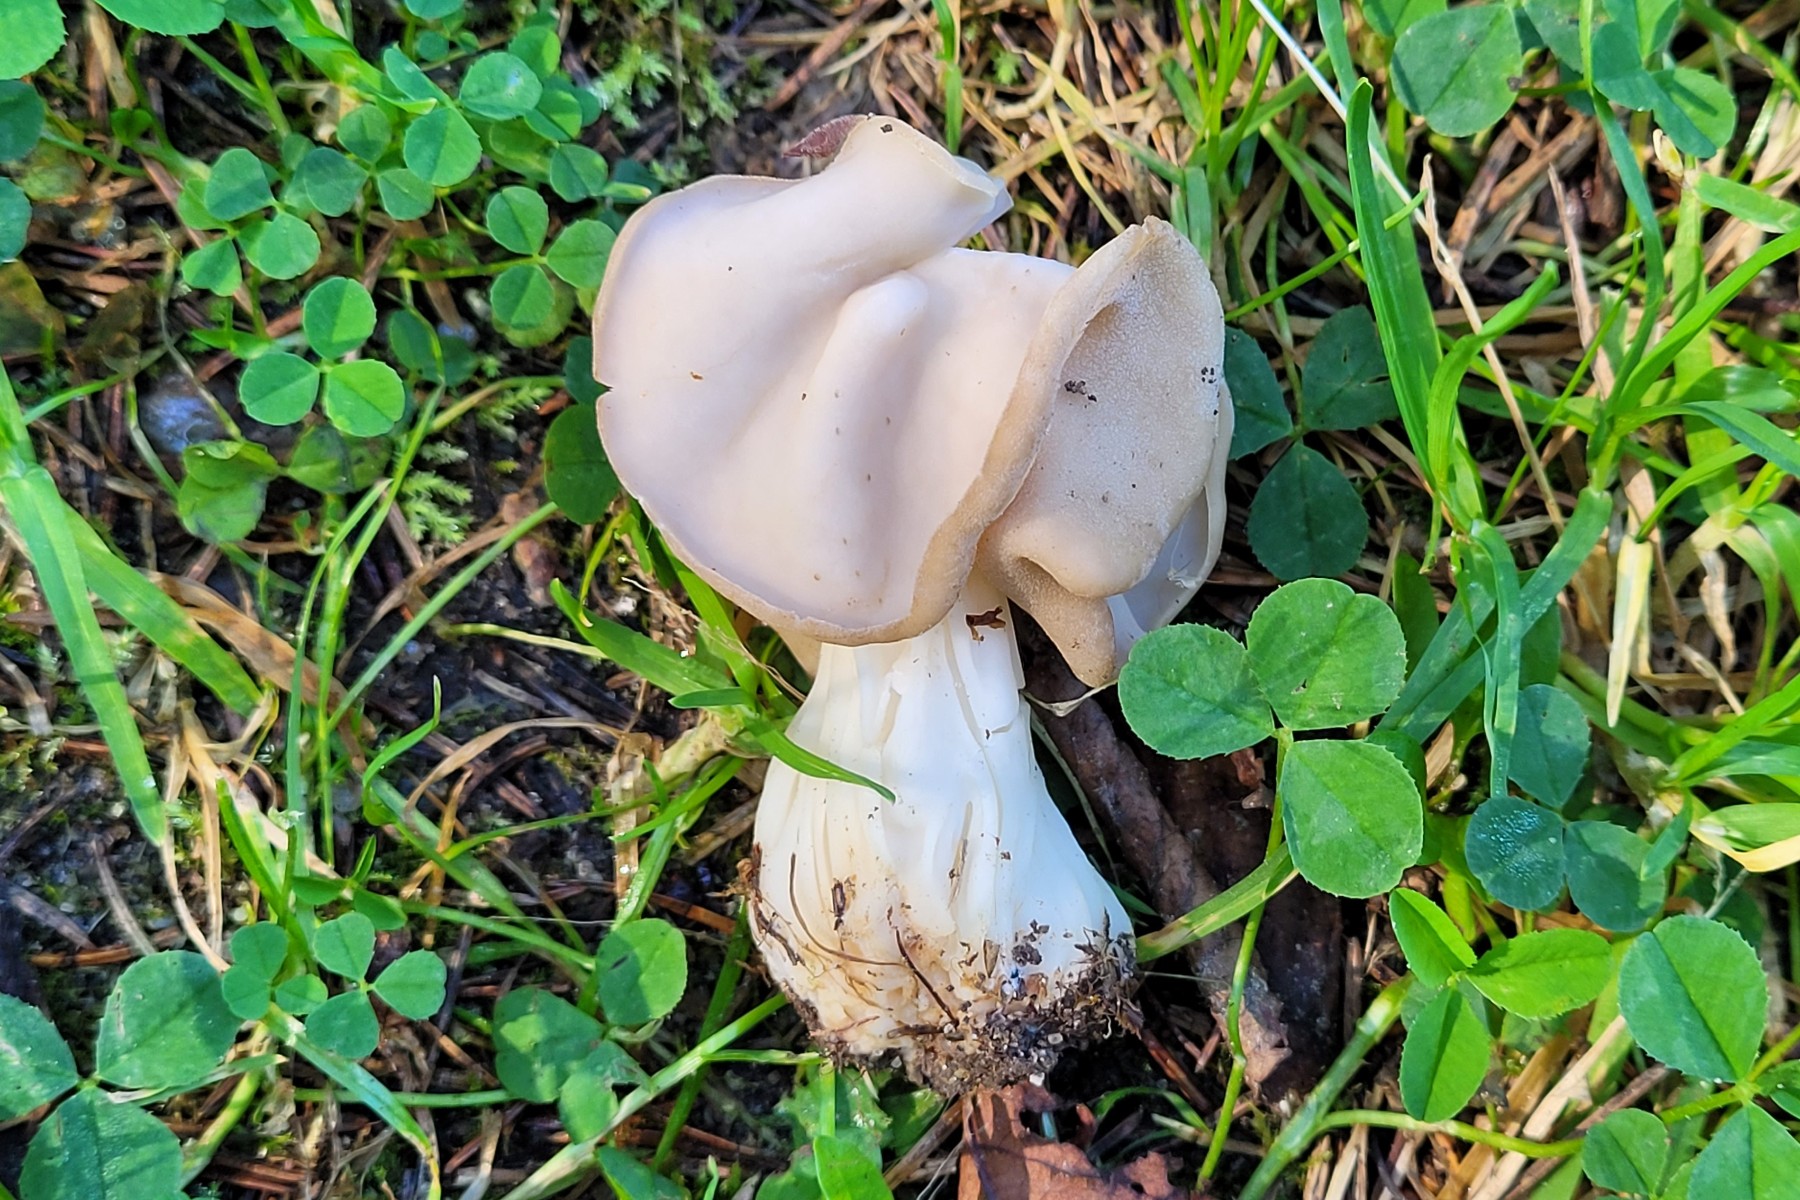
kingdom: Fungi
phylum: Ascomycota
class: Pezizomycetes
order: Pezizales
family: Helvellaceae
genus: Helvella
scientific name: Helvella crispa
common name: kruset foldhat
